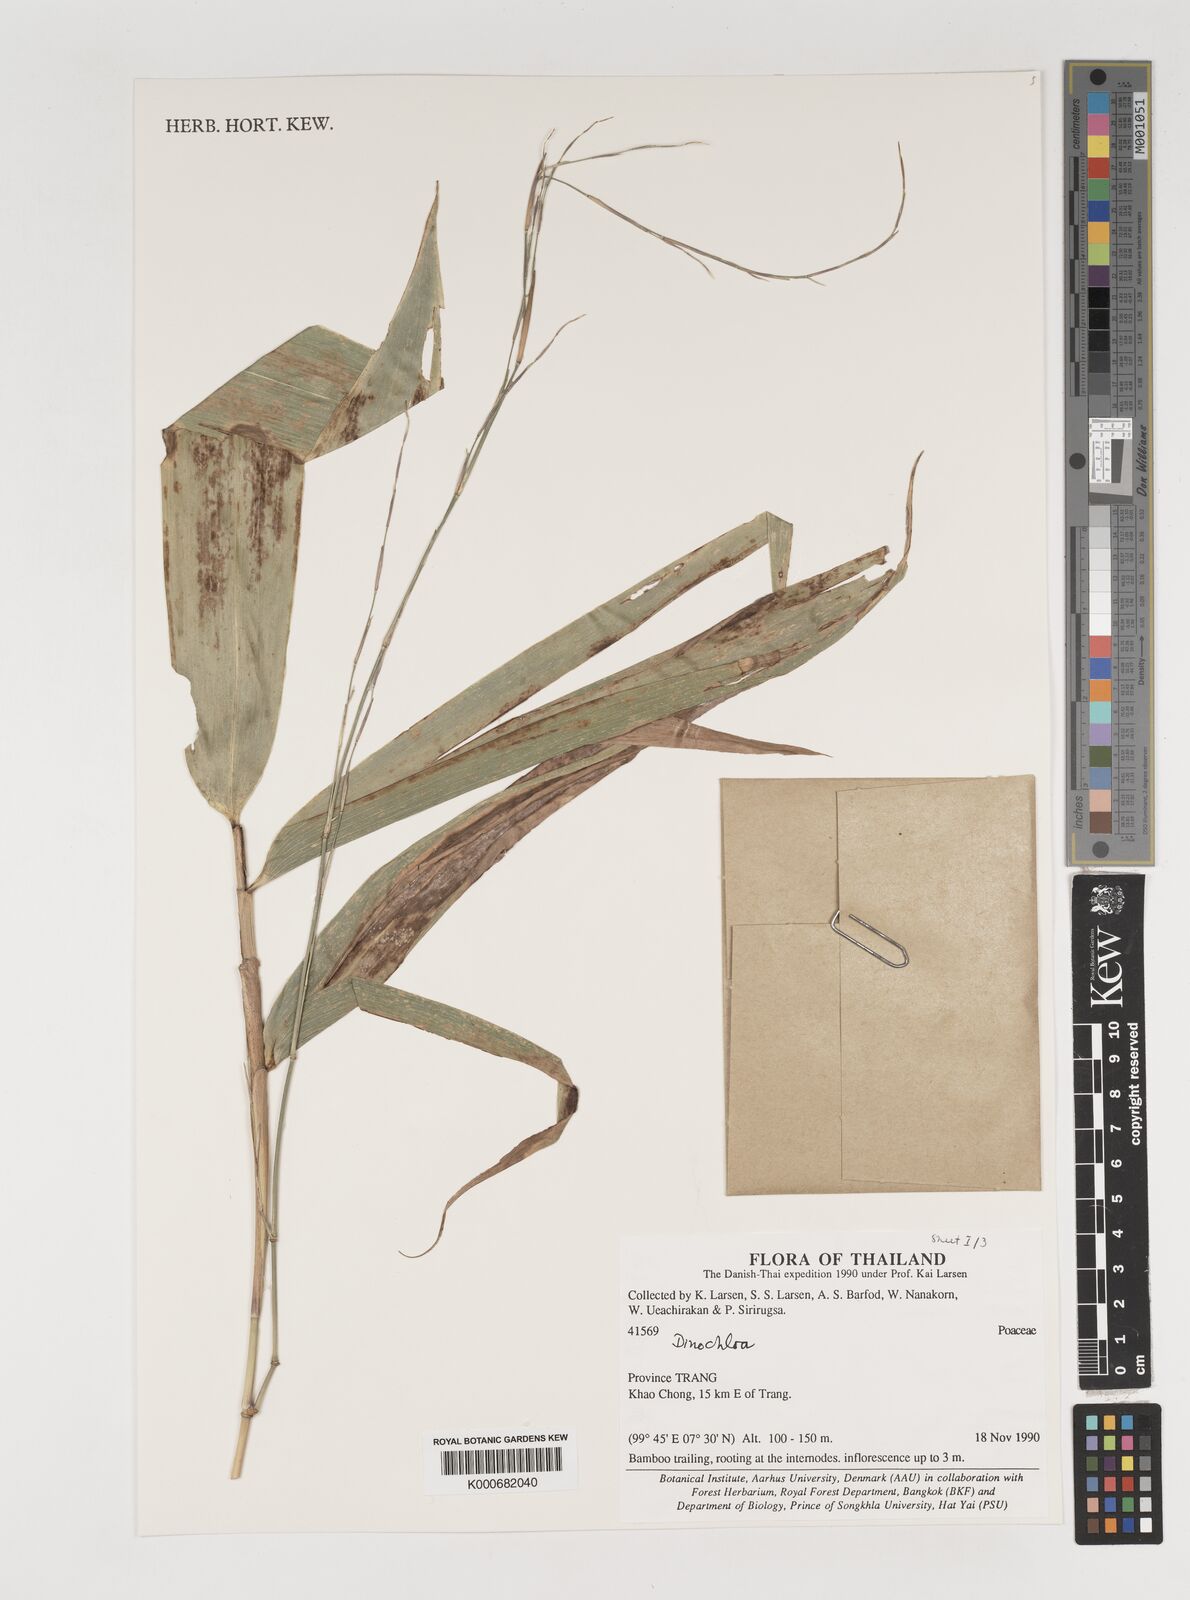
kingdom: Plantae
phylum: Tracheophyta
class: Liliopsida
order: Poales
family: Poaceae
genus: Dinochloa
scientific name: Dinochloa
